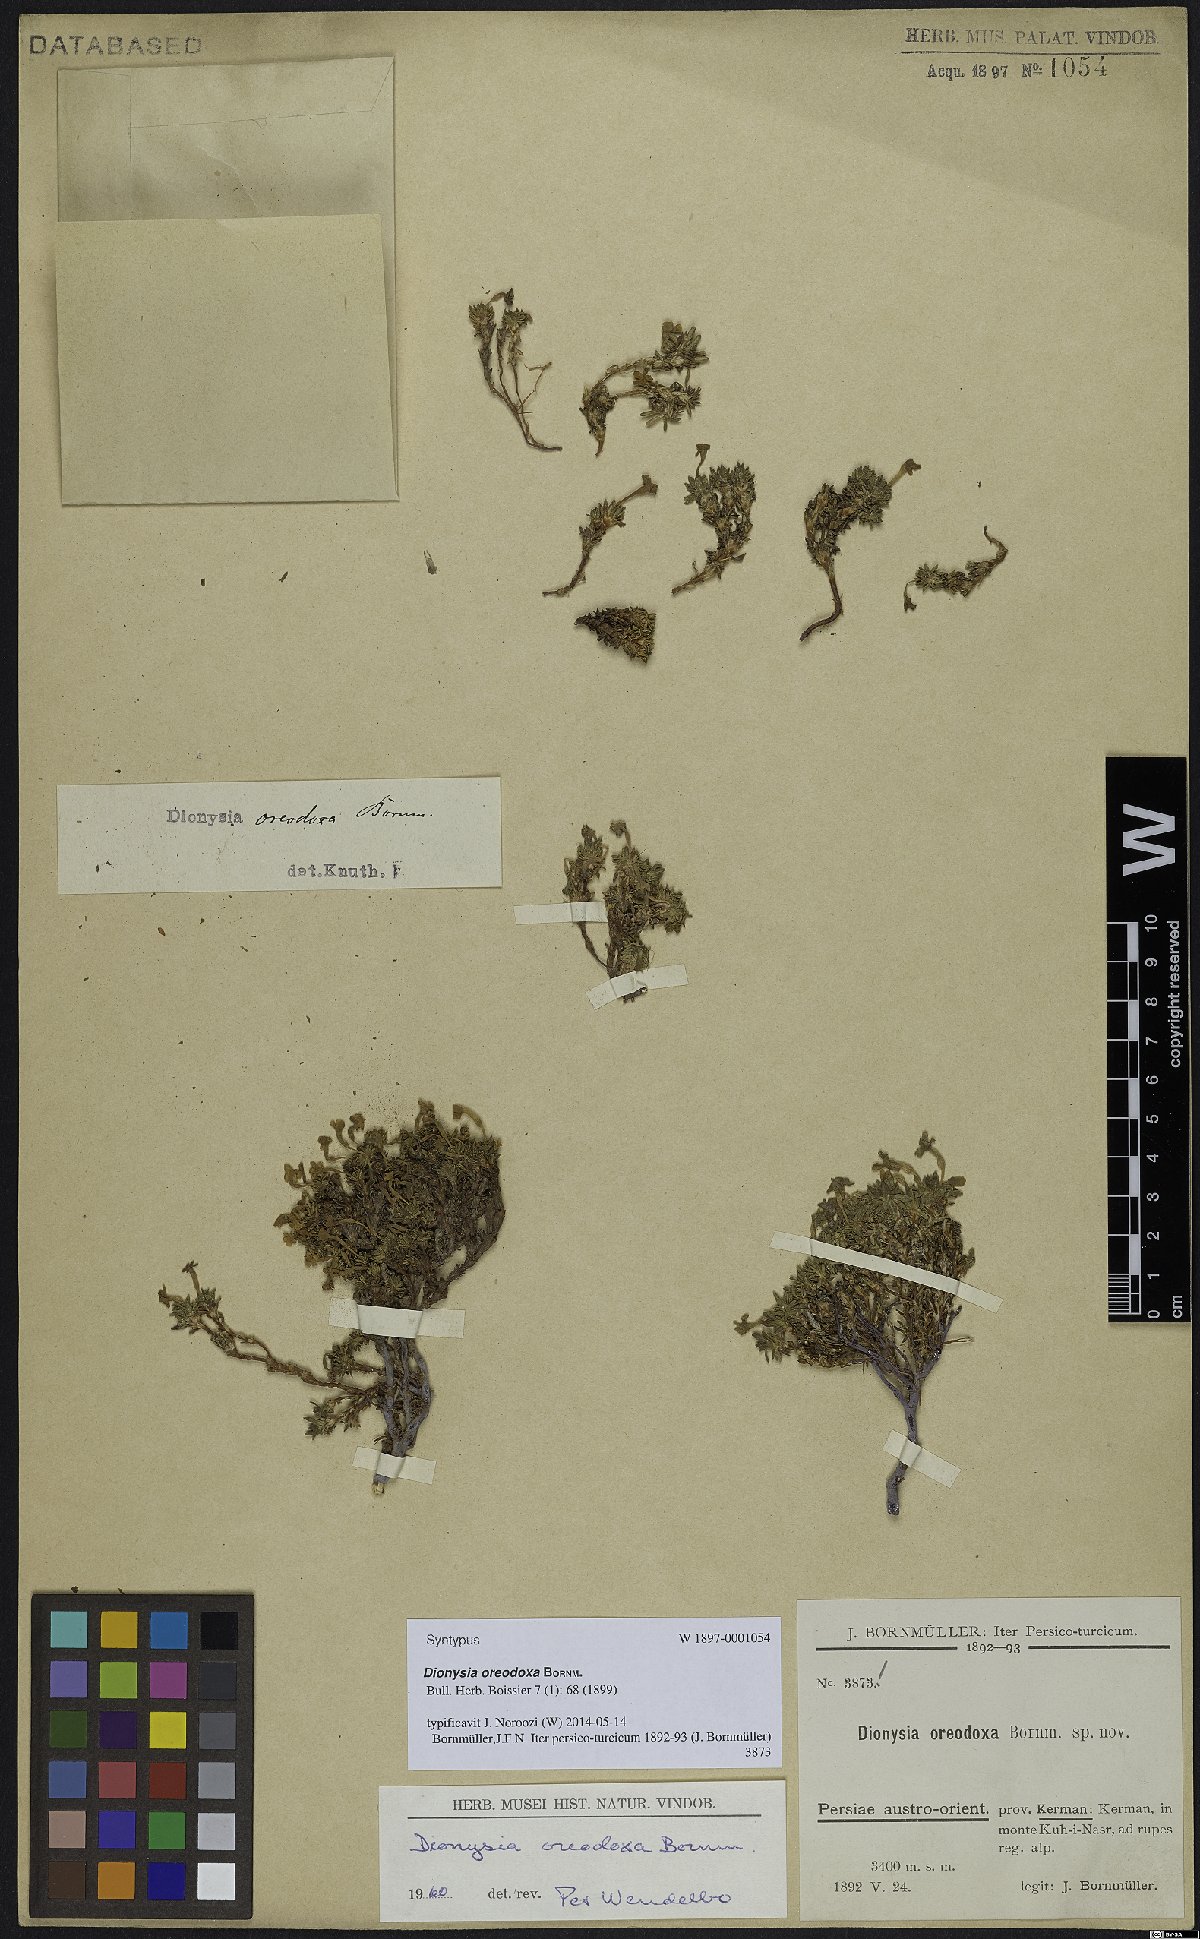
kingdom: Plantae
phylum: Tracheophyta
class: Magnoliopsida
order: Ericales
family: Primulaceae
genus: Dionysia
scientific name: Dionysia oreodoxa
